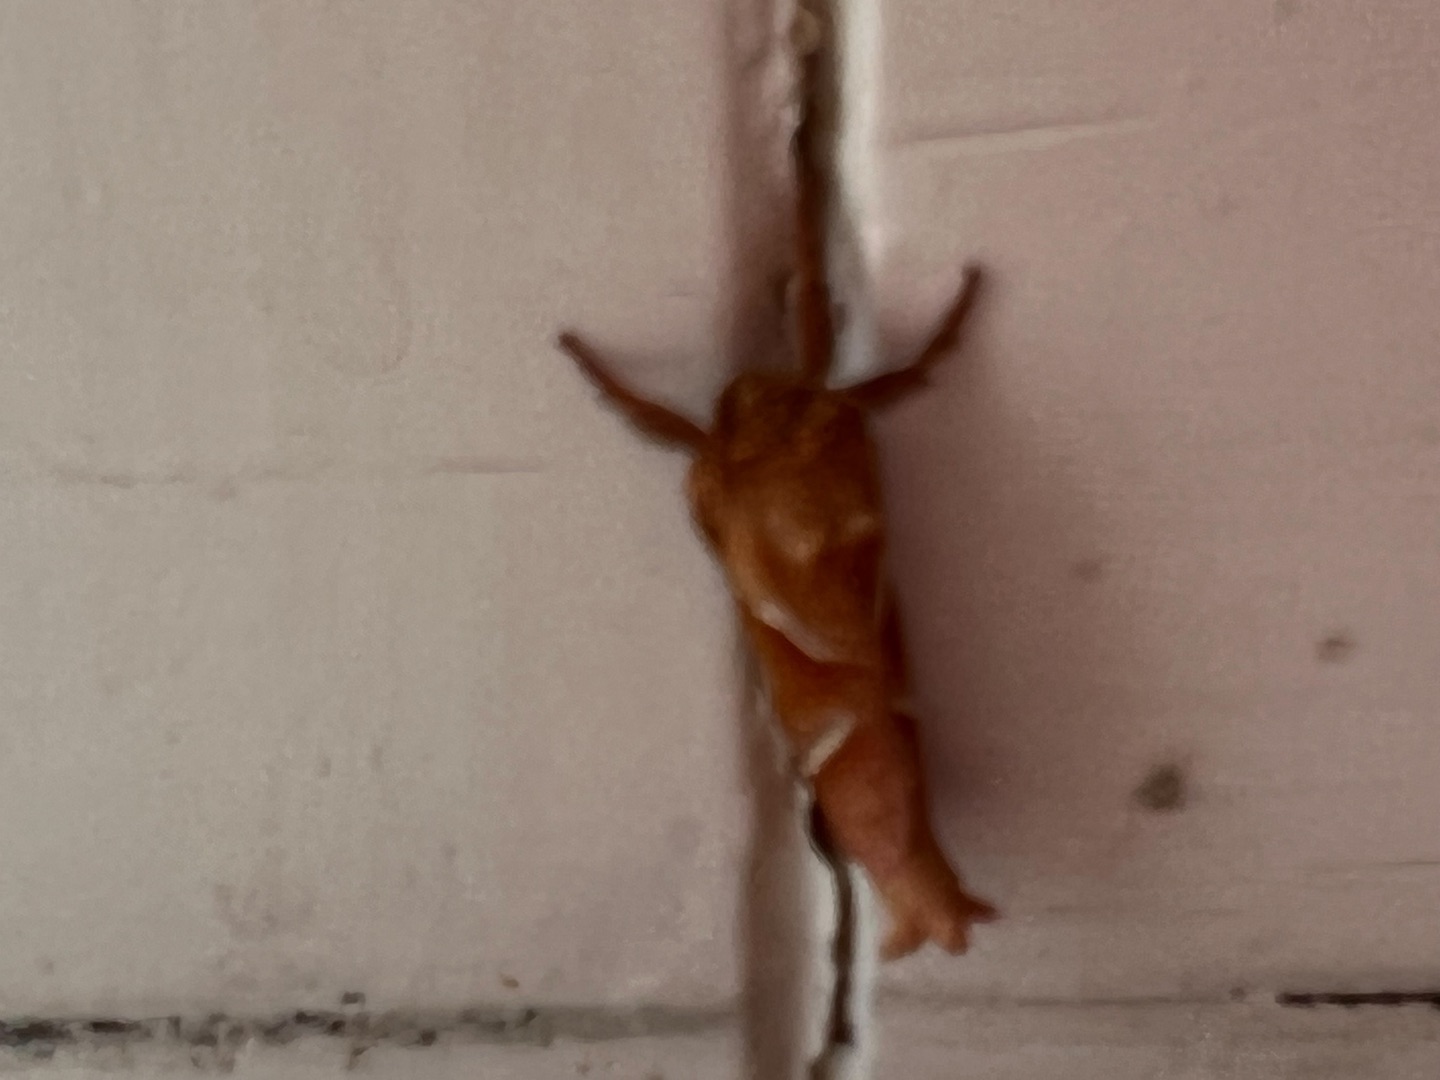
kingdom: Animalia
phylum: Arthropoda
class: Insecta
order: Lepidoptera
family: Hepialidae
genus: Triodia
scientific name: Triodia sylvina
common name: Skræpperodæder
